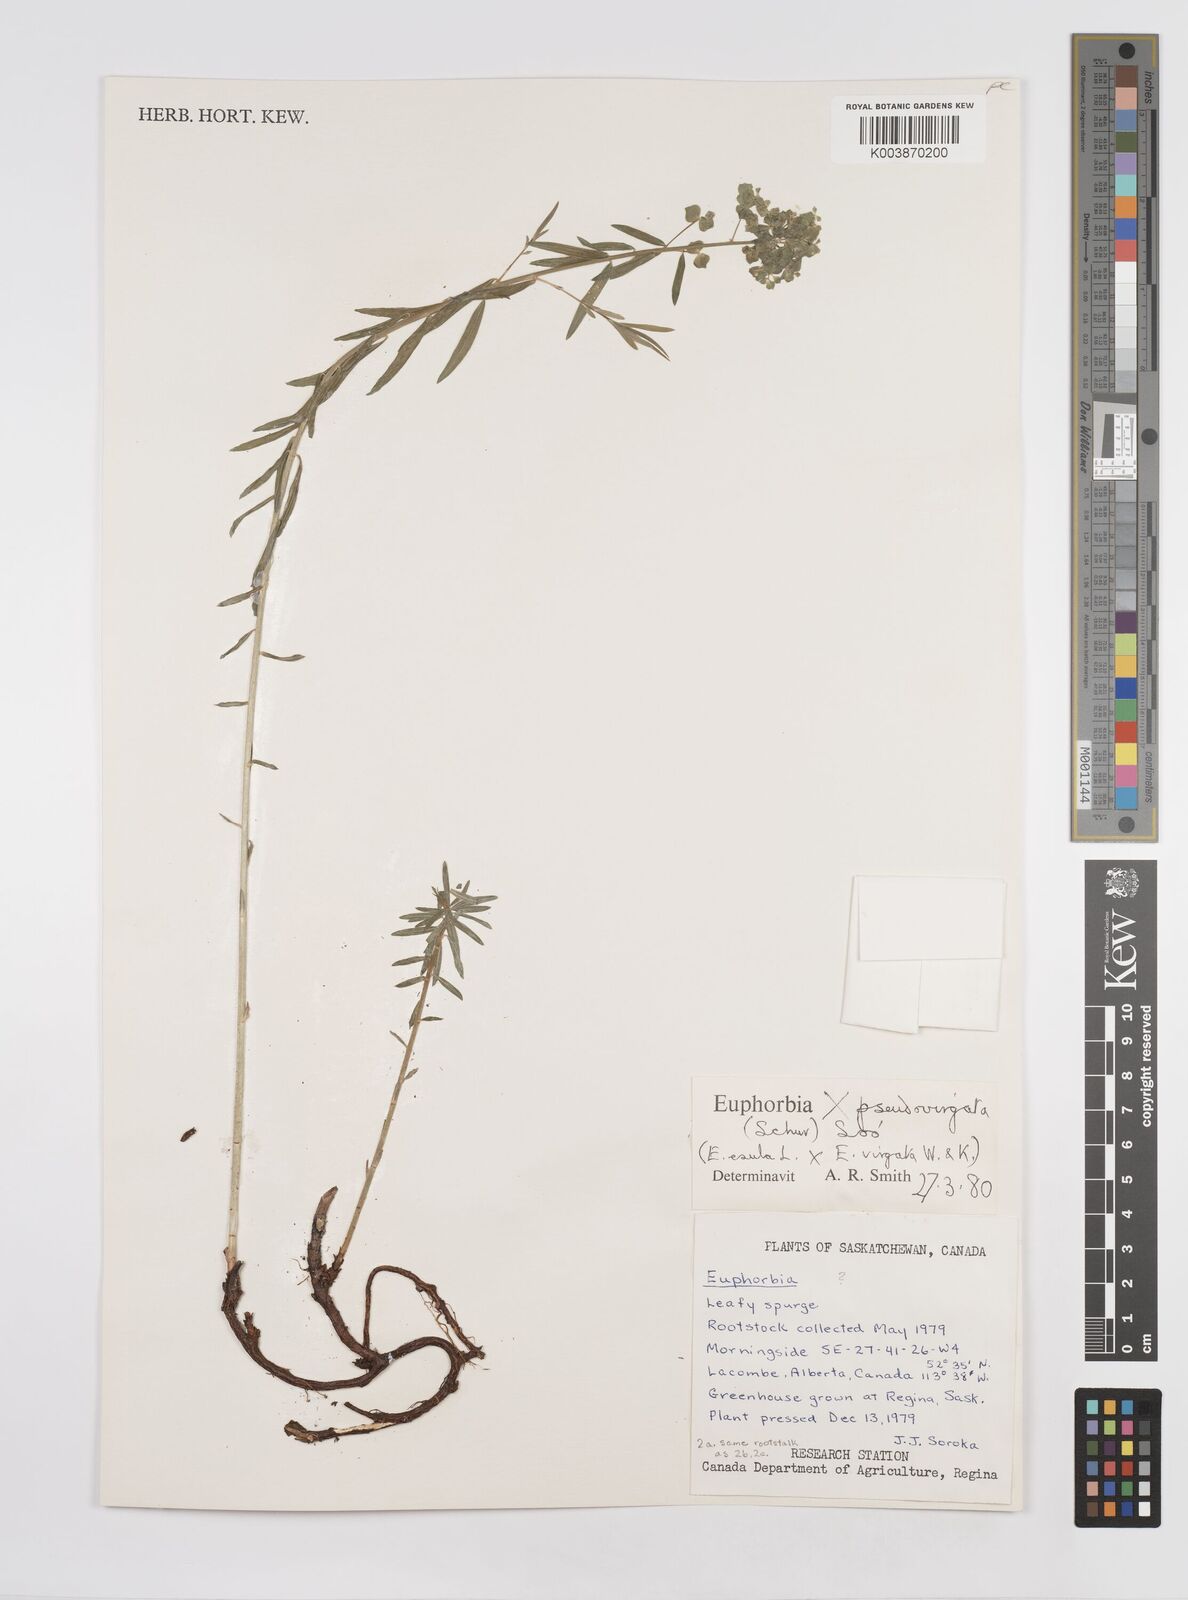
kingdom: Plantae
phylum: Tracheophyta
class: Magnoliopsida
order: Malpighiales
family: Euphorbiaceae
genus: Euphorbia
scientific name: Euphorbia virgata
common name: Leafy spurge
